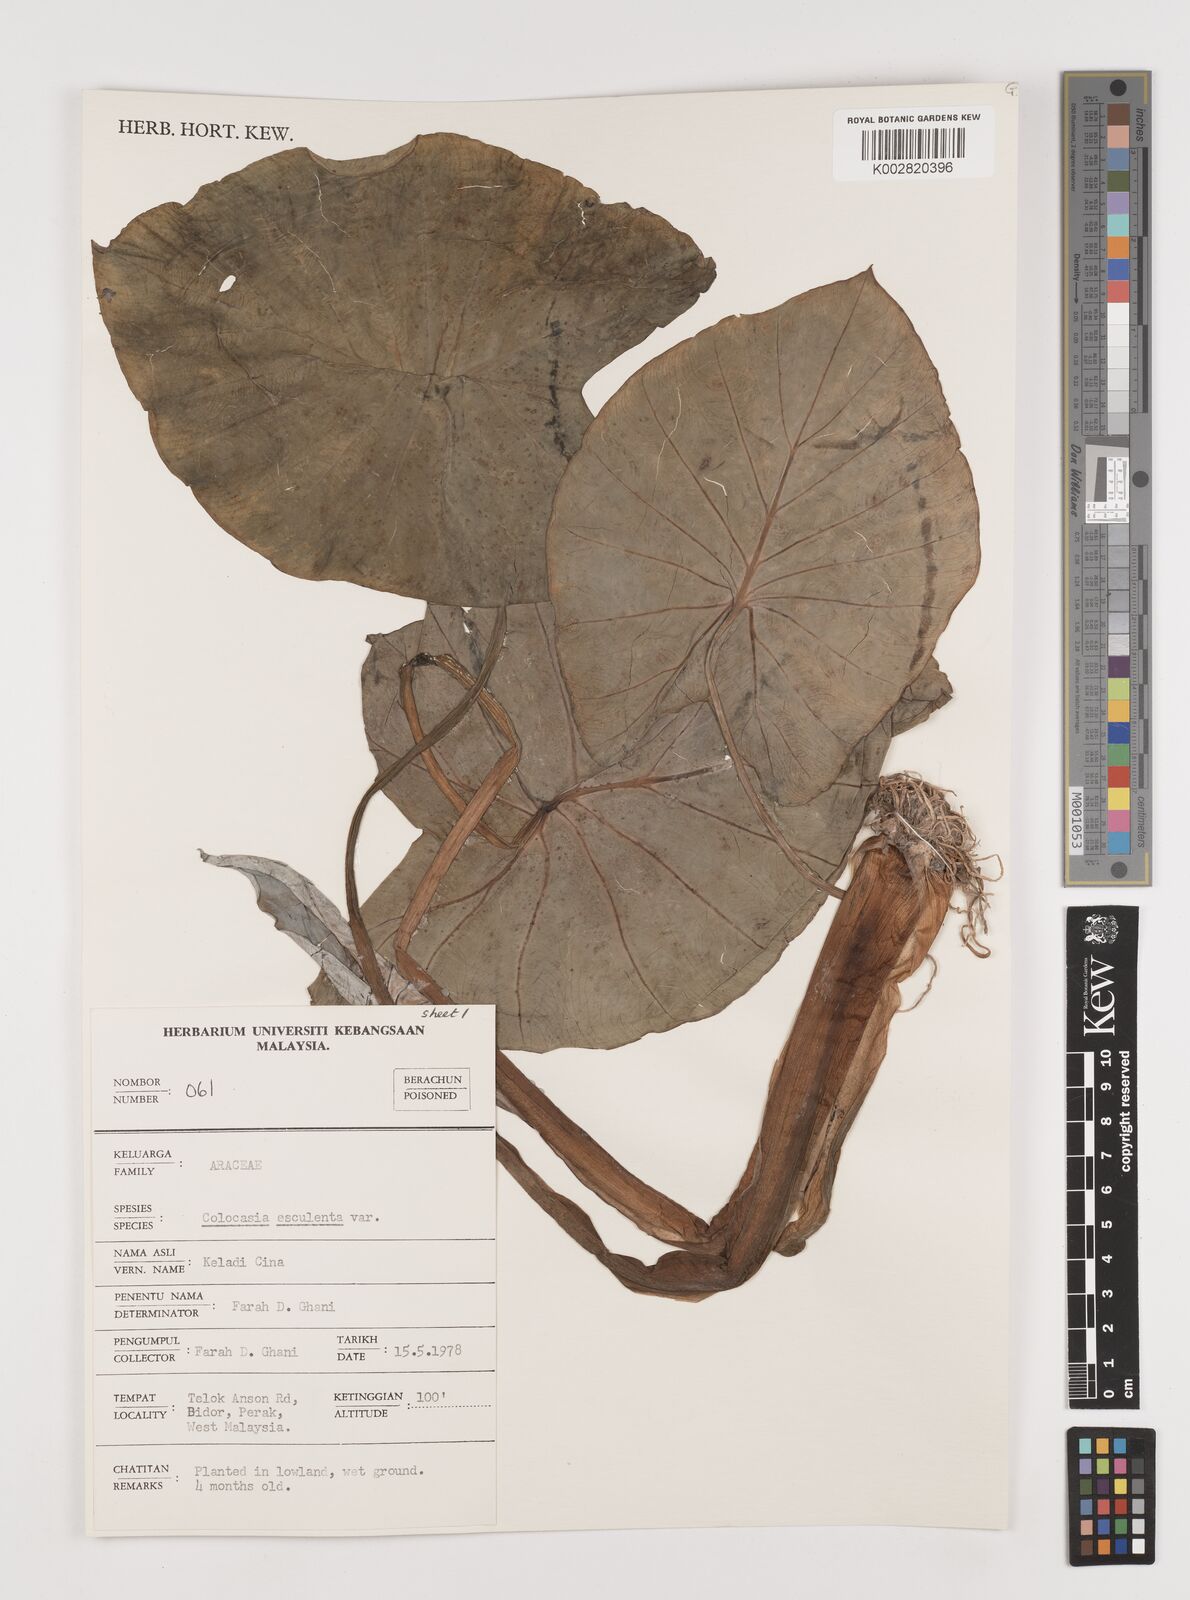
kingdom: Plantae
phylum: Tracheophyta
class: Liliopsida
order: Alismatales
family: Araceae
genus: Colocasia
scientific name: Colocasia esculenta
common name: Taro
